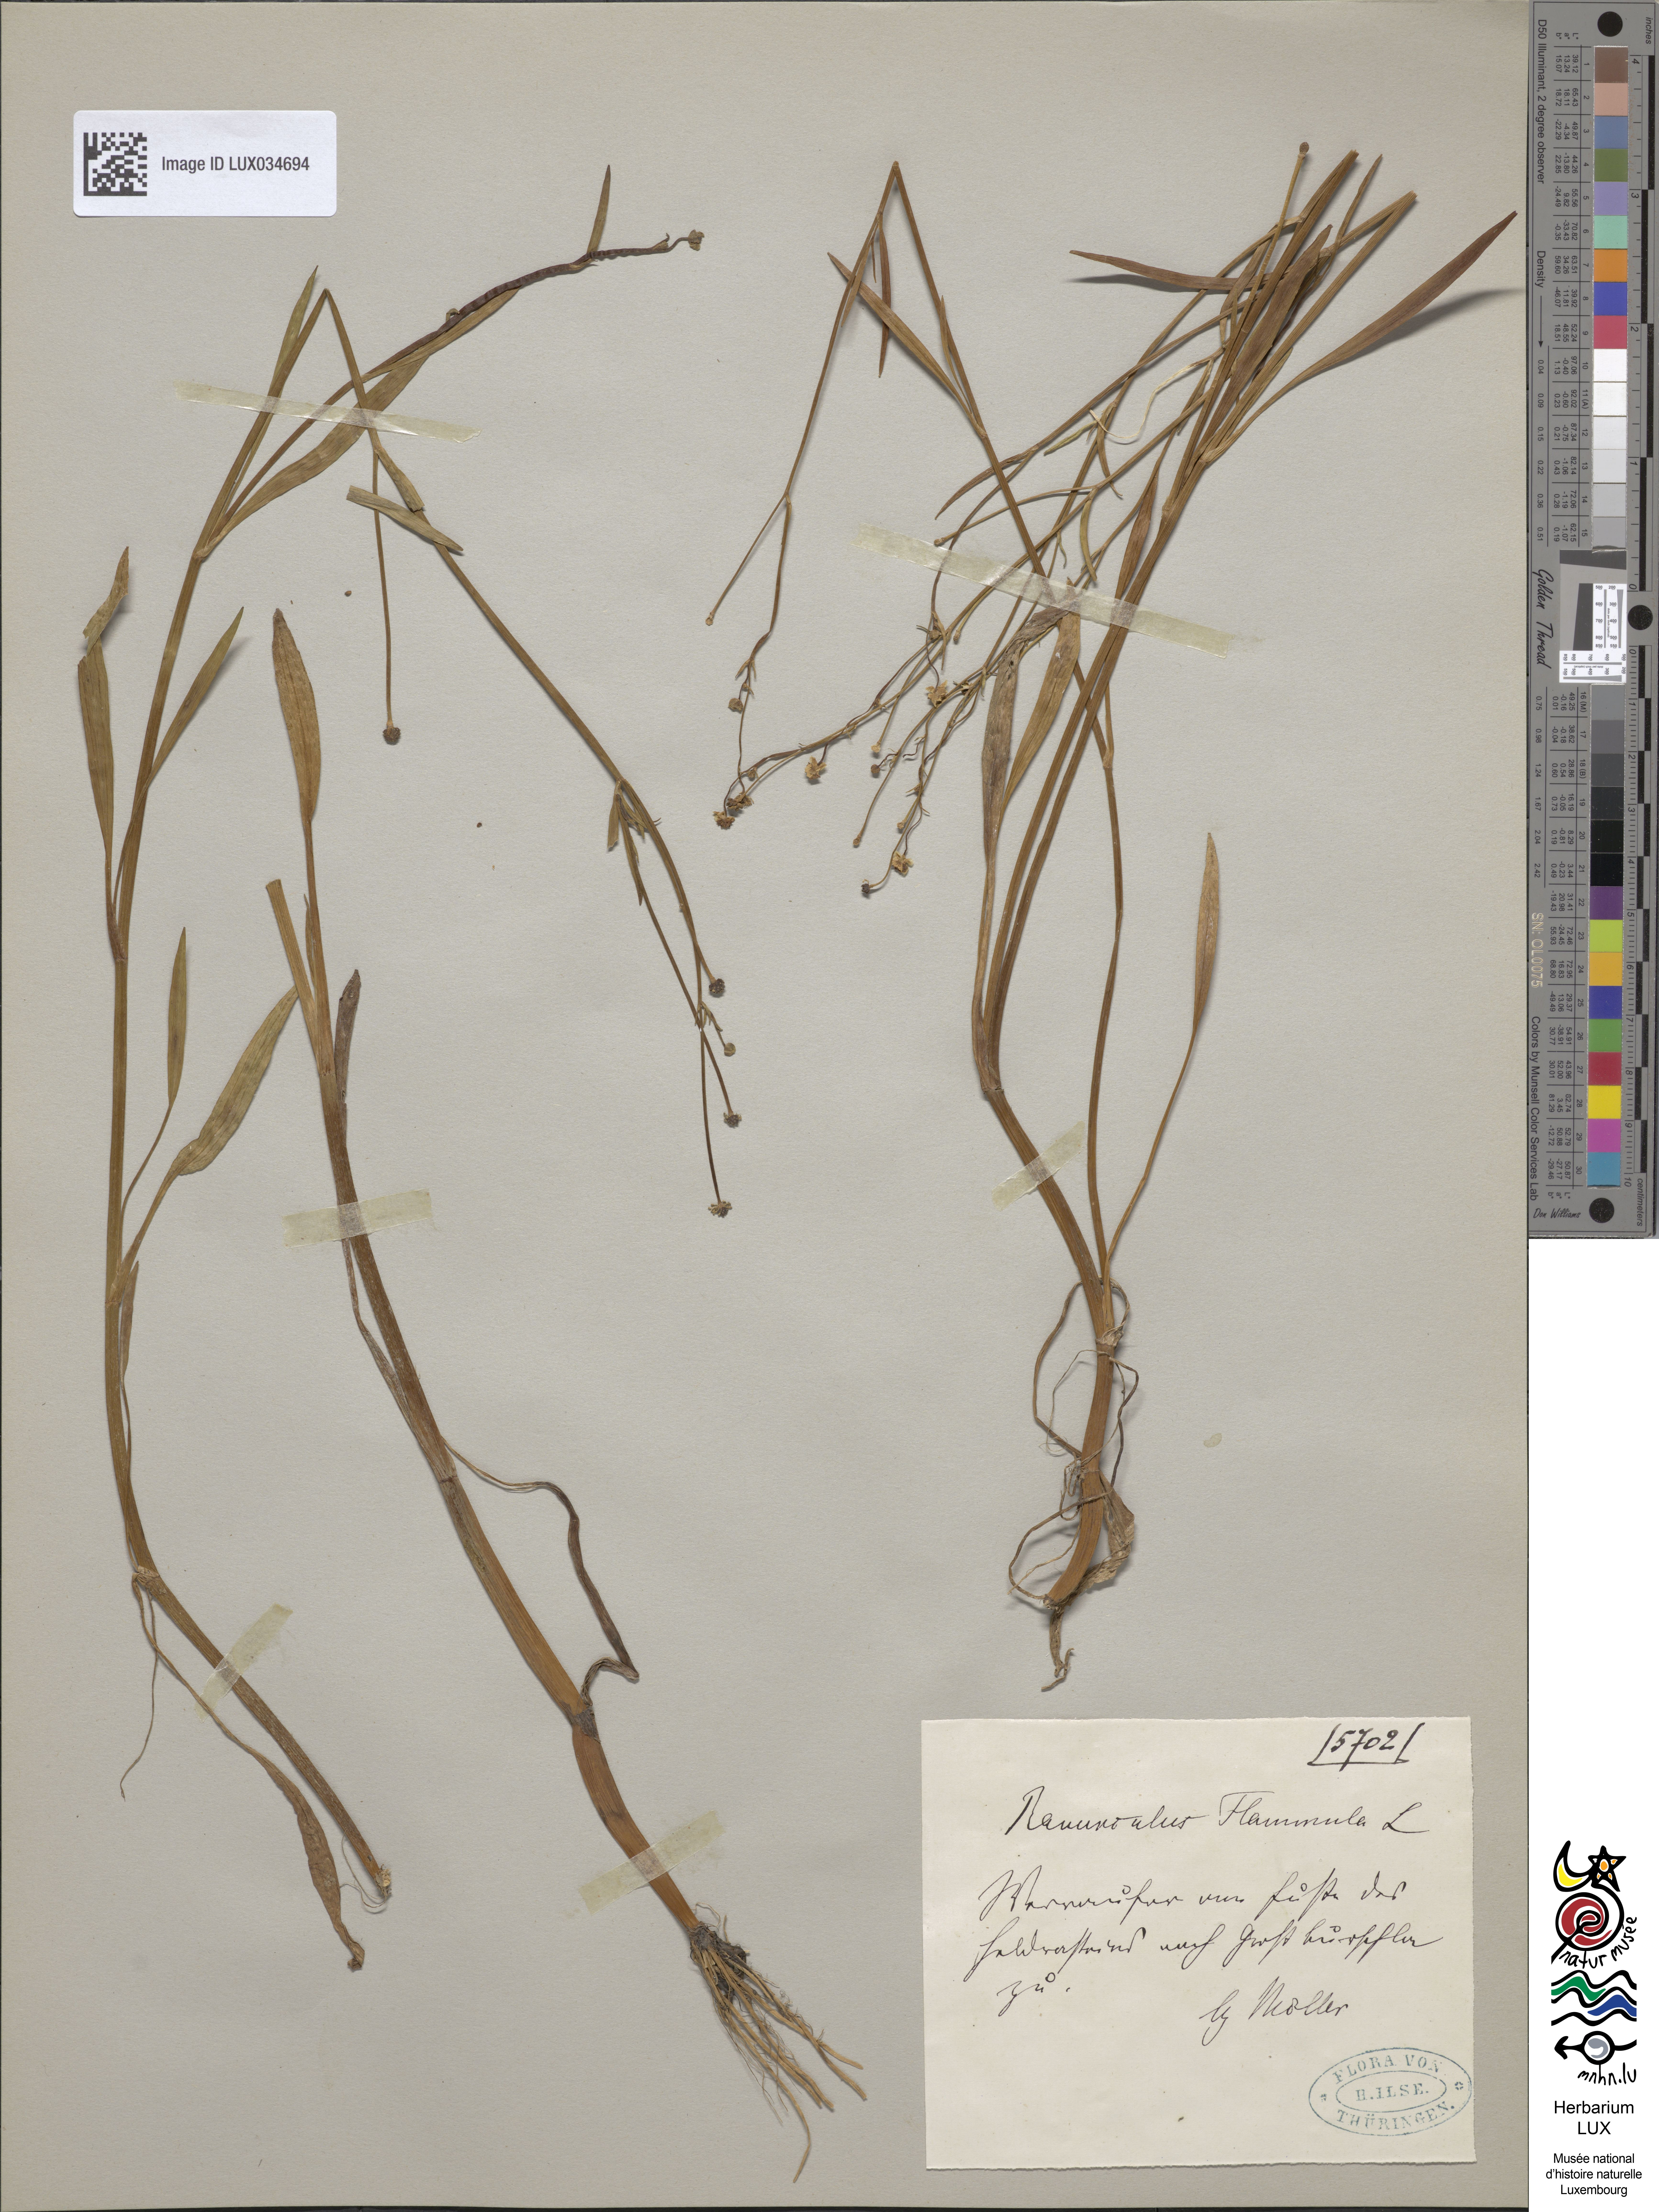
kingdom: Plantae
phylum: Tracheophyta
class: Magnoliopsida
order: Ranunculales
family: Ranunculaceae
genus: Ranunculus
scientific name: Ranunculus flammula
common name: Lesser spearwort
